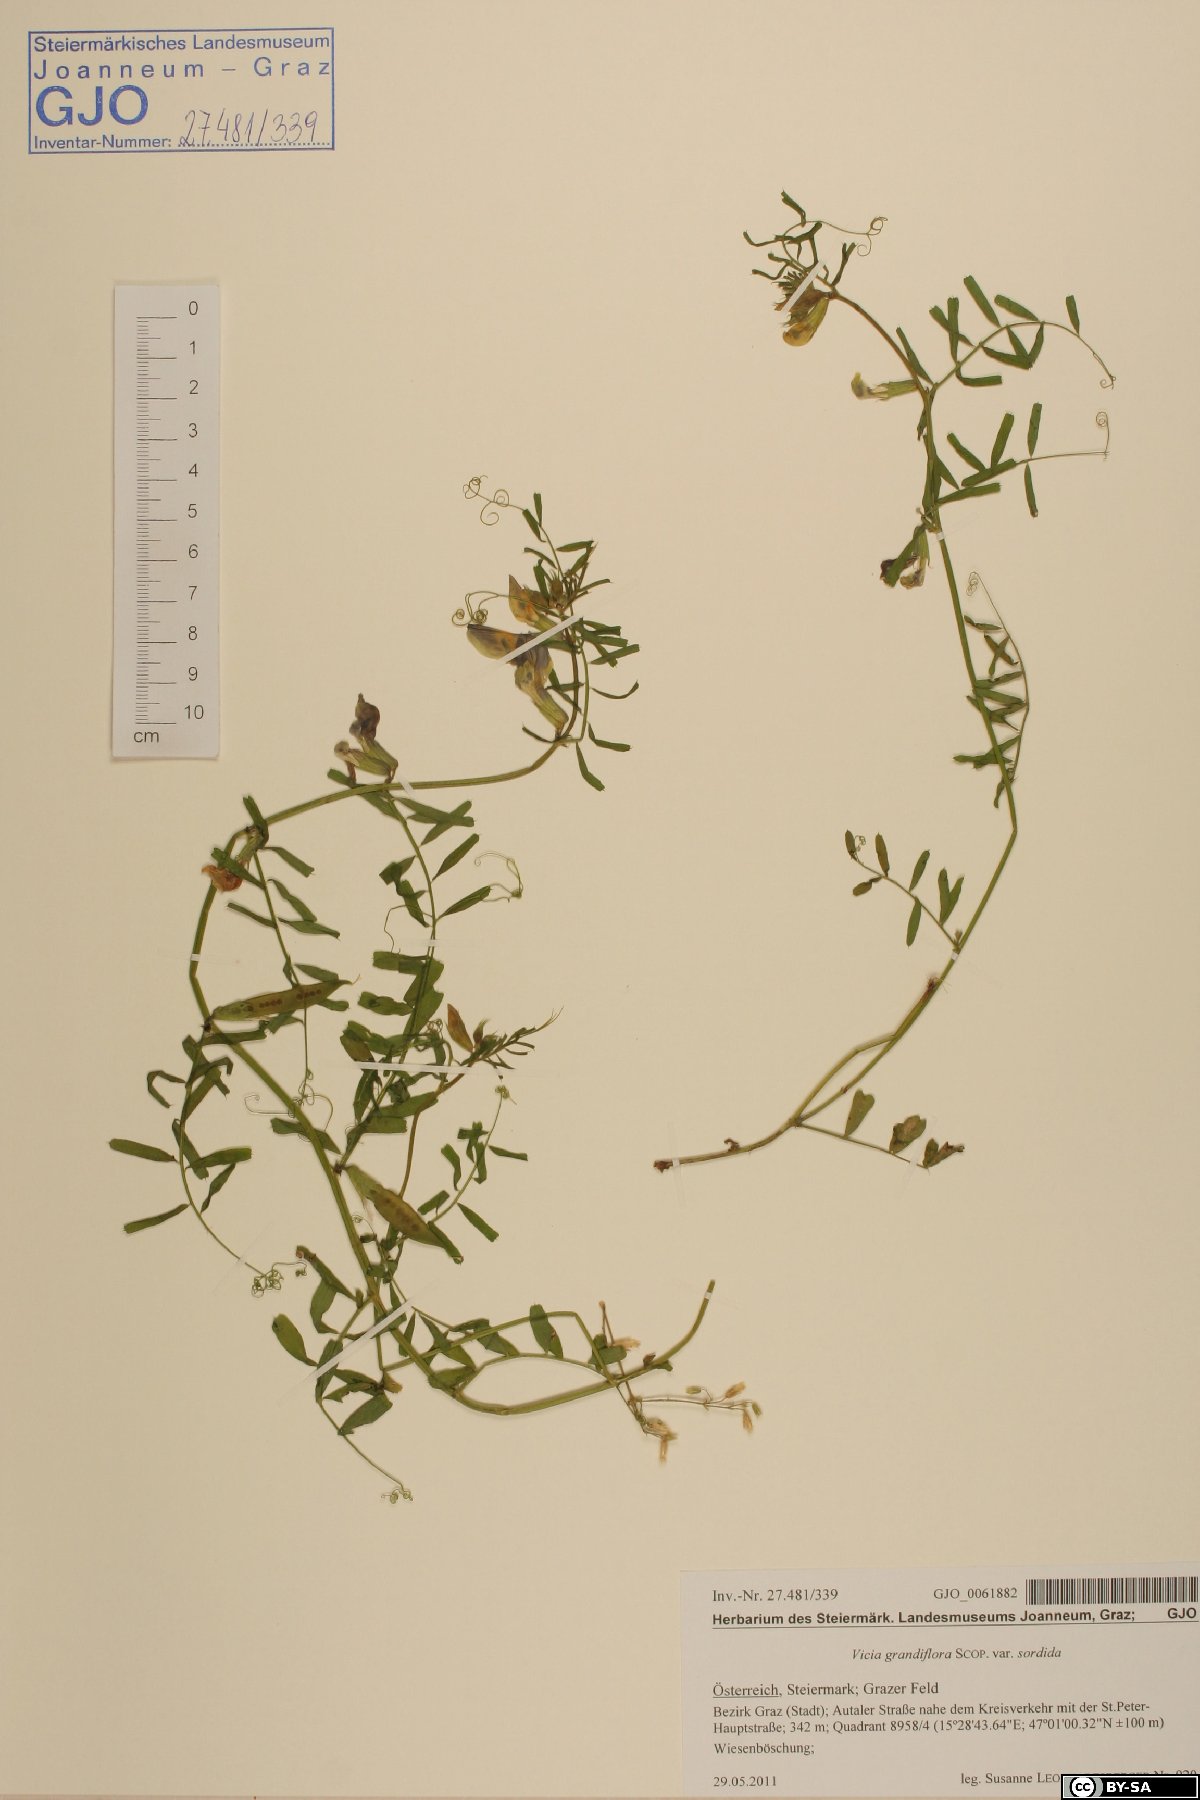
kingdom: Plantae
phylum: Tracheophyta
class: Magnoliopsida
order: Fabales
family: Fabaceae
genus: Vicia
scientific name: Vicia grandiflora
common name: Large yellow vetch
